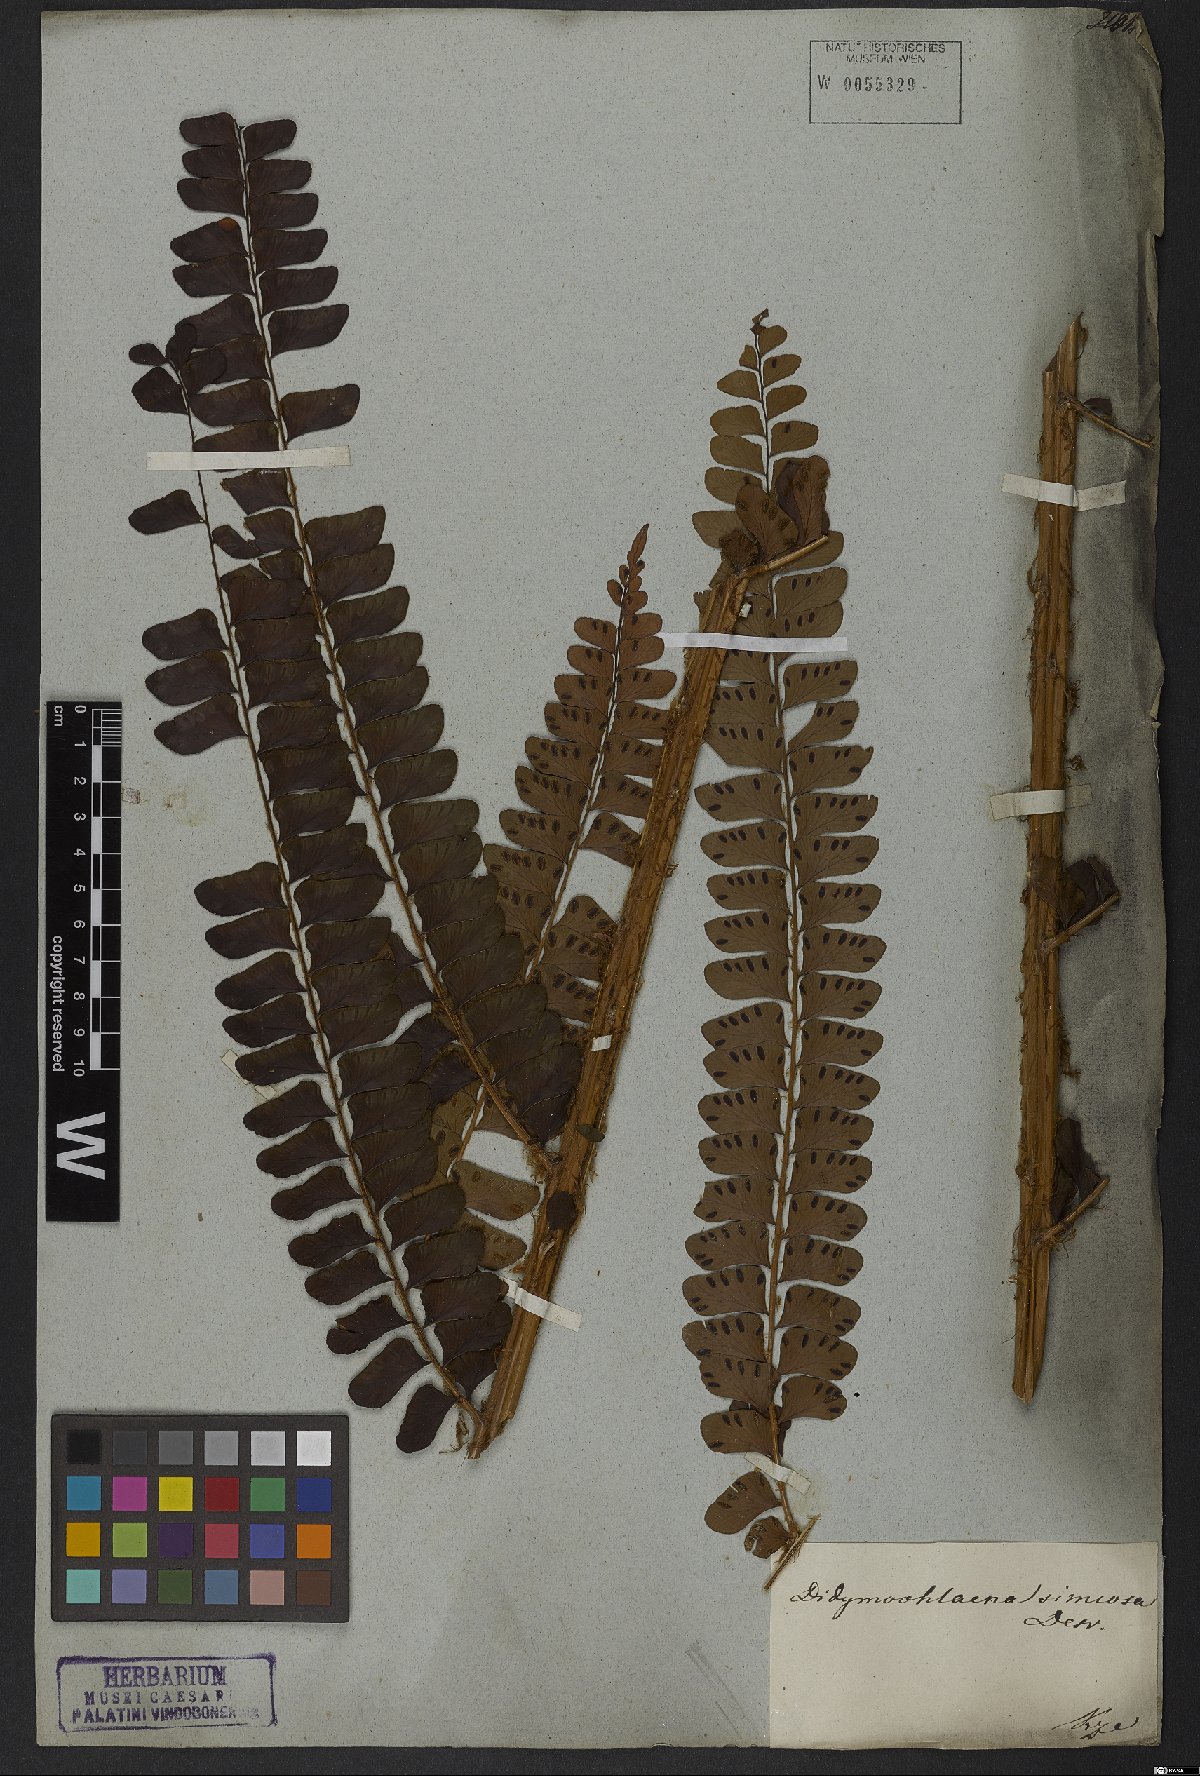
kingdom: Plantae
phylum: Tracheophyta
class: Polypodiopsida
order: Polypodiales
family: Didymochlaenaceae
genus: Didymochlaena
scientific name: Didymochlaena truncatula
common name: Mahogany fern
